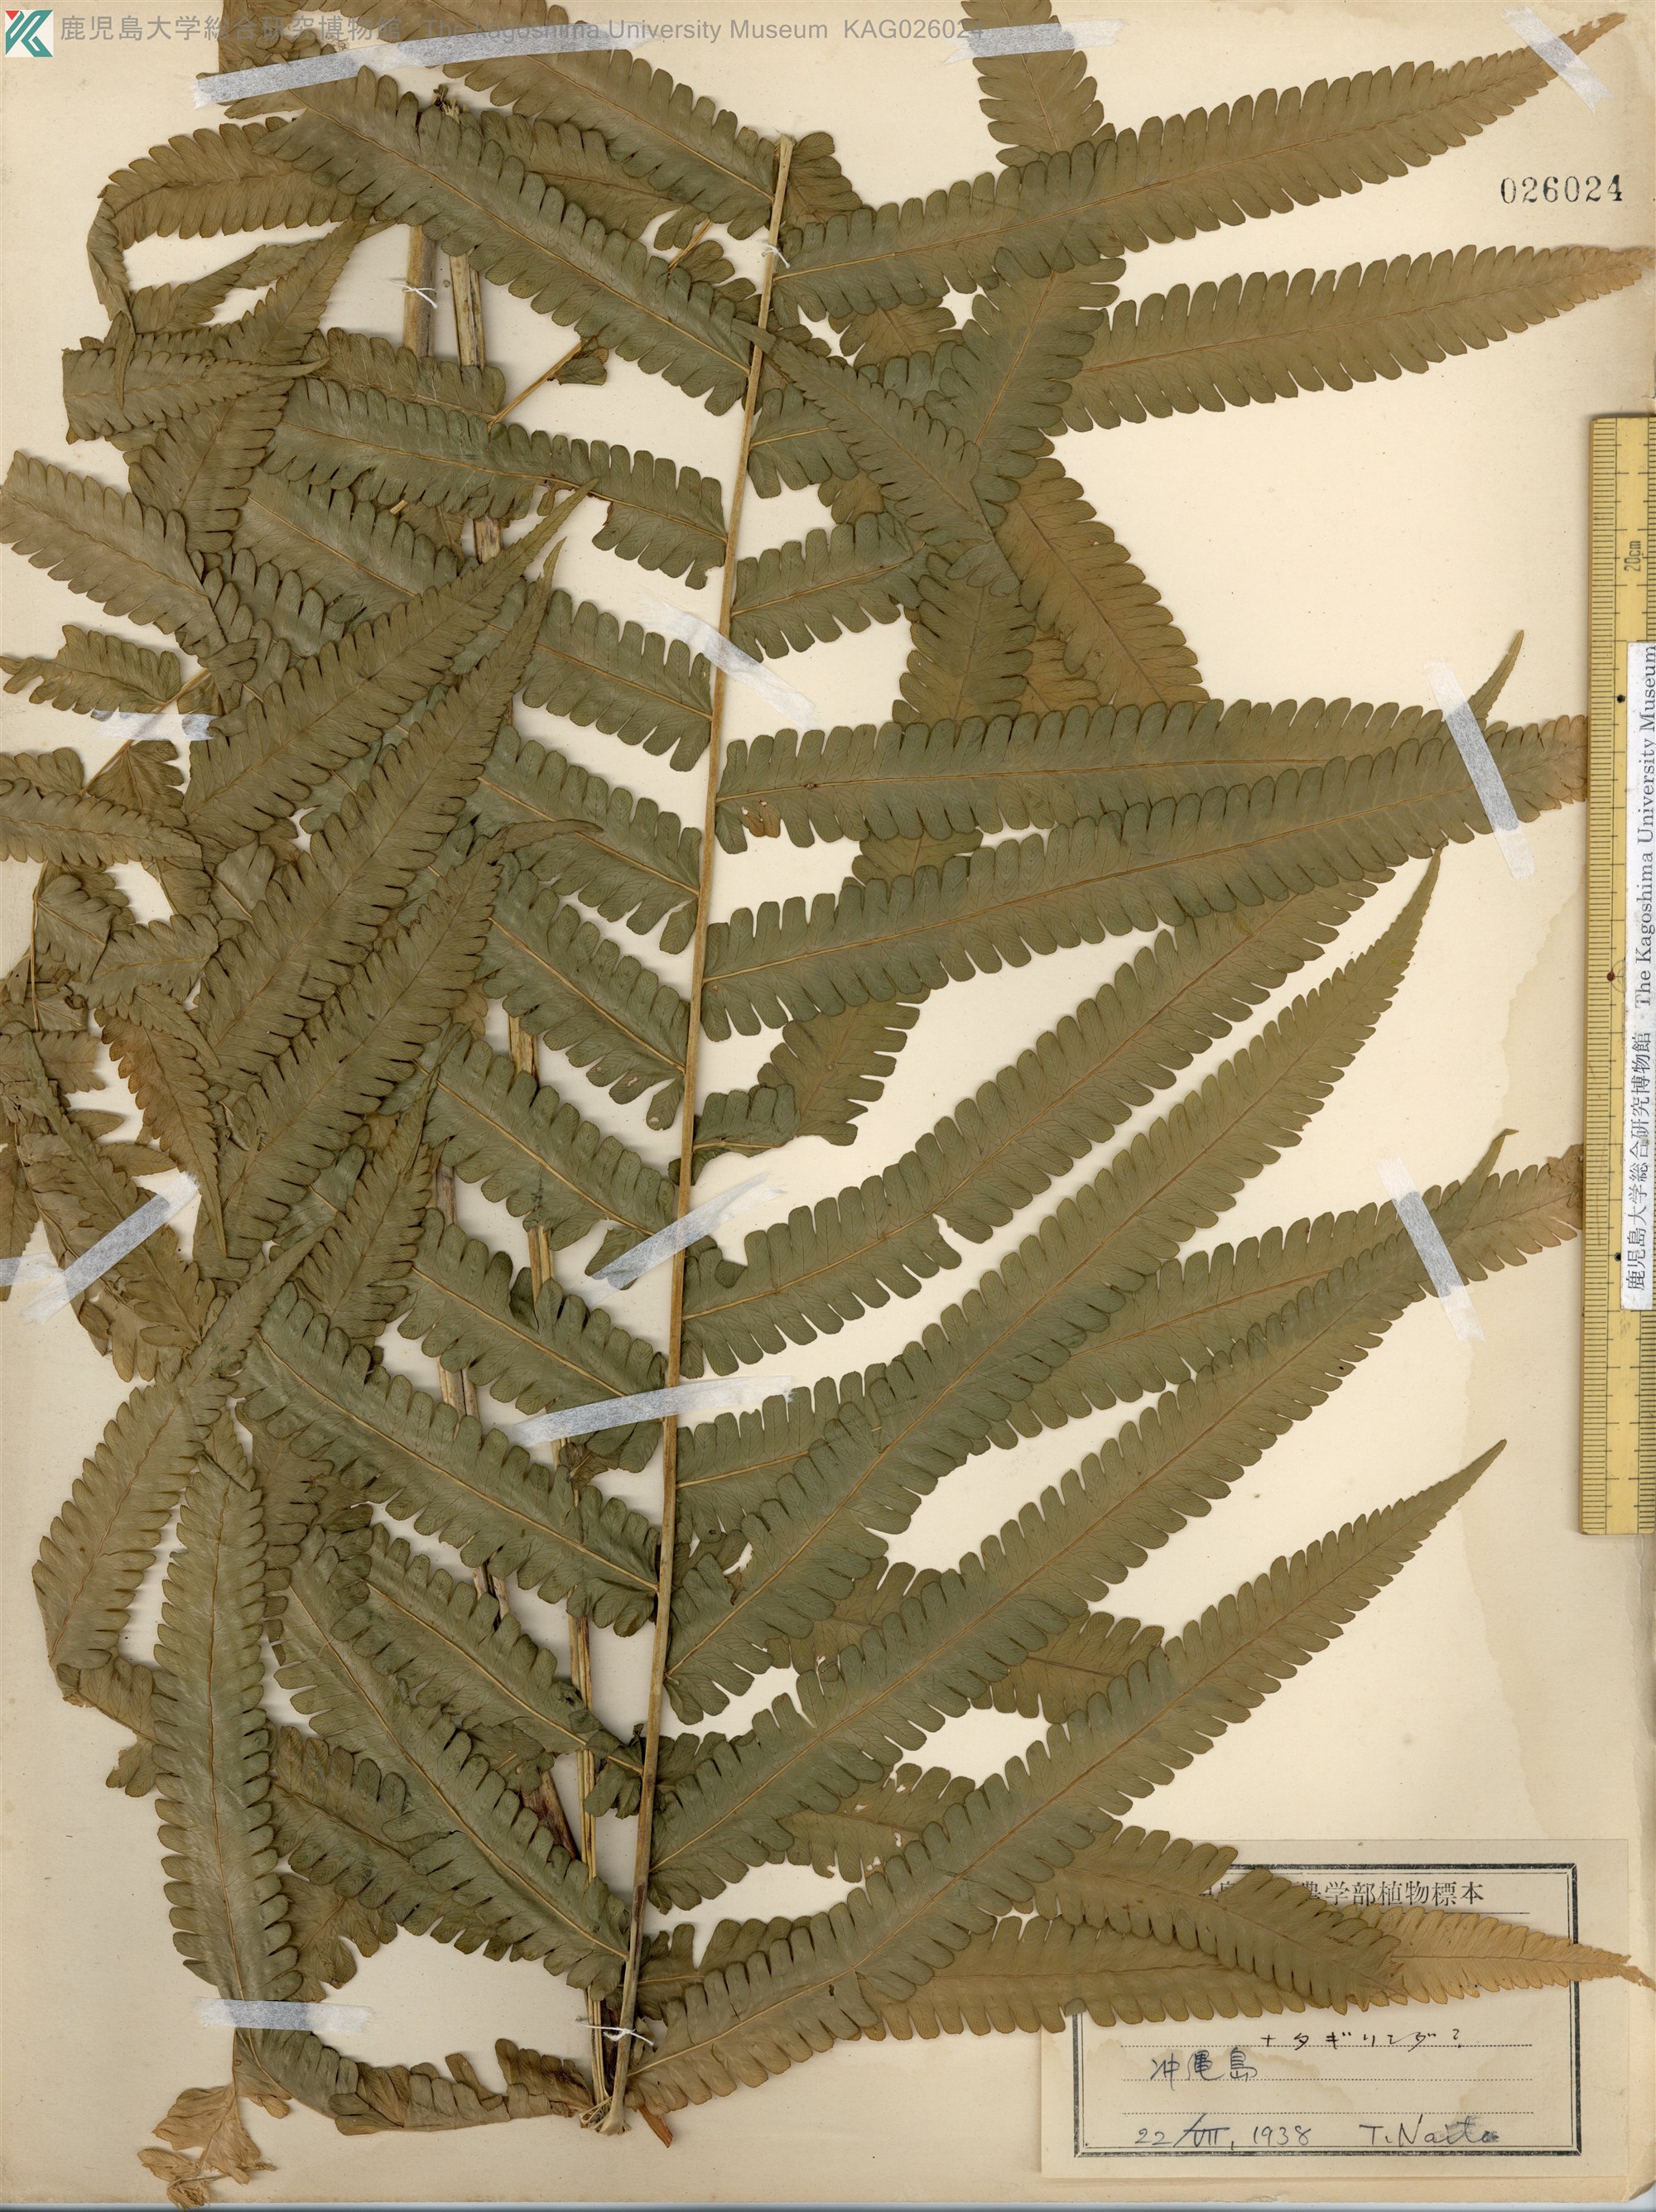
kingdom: Plantae
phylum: Tracheophyta
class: Polypodiopsida
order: Polypodiales
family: Thelypteridaceae
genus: Reholttumia
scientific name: Reholttumia truncata
